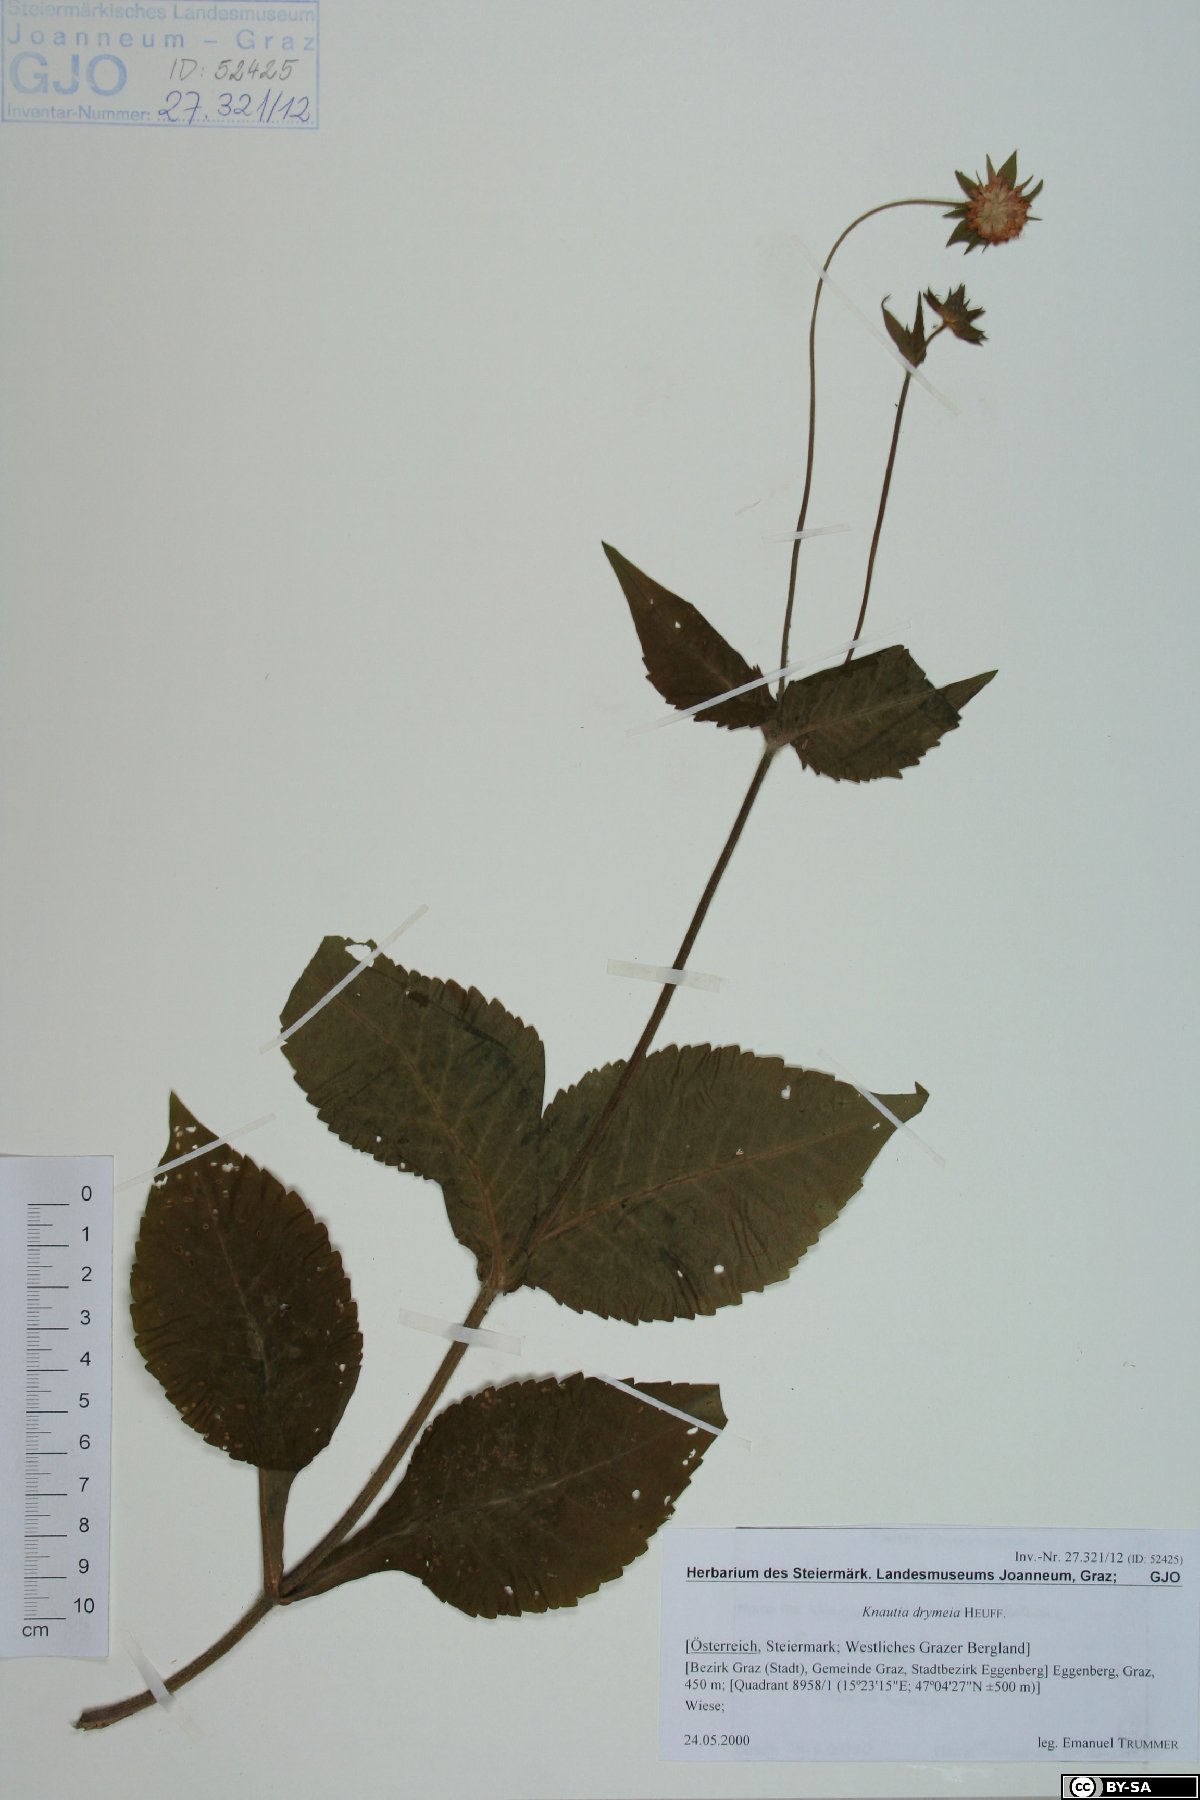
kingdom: Plantae
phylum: Tracheophyta
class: Magnoliopsida
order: Dipsacales
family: Caprifoliaceae
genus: Knautia
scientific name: Knautia drymeia
